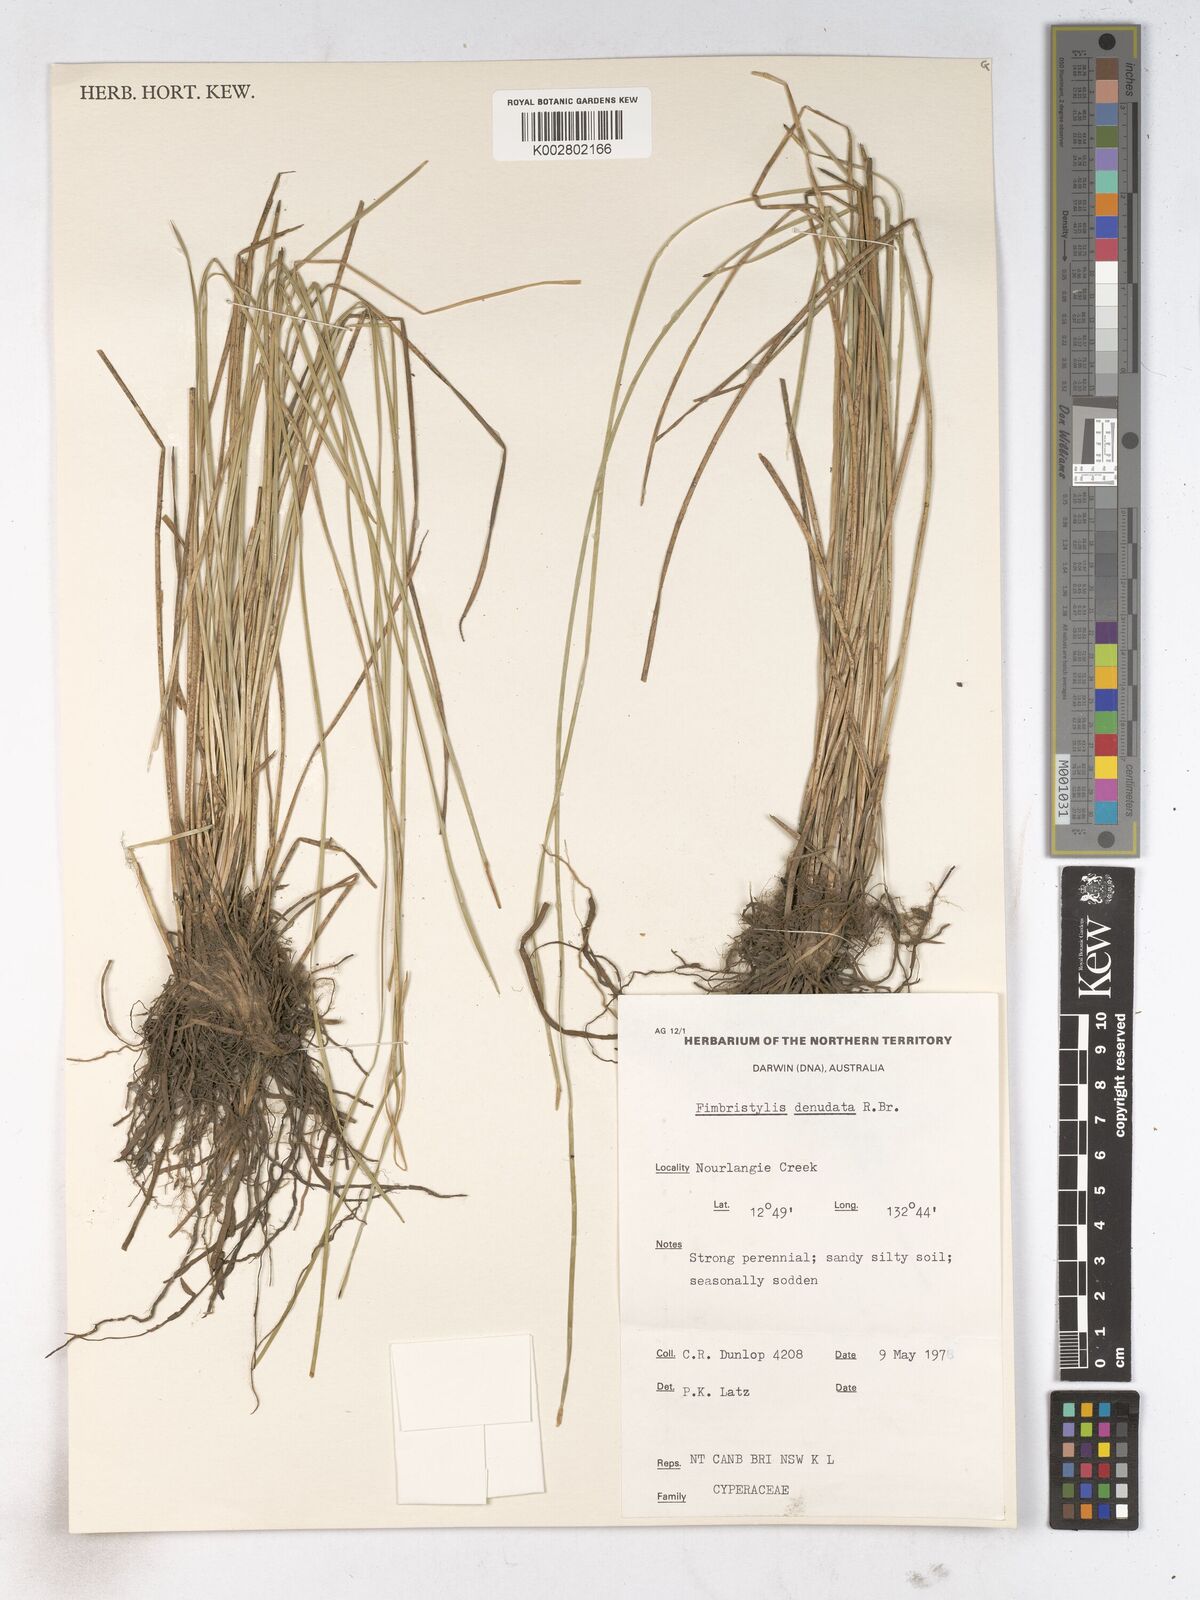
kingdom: Plantae
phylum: Tracheophyta
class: Liliopsida
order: Poales
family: Cyperaceae
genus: Fimbristylis
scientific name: Fimbristylis denudata
